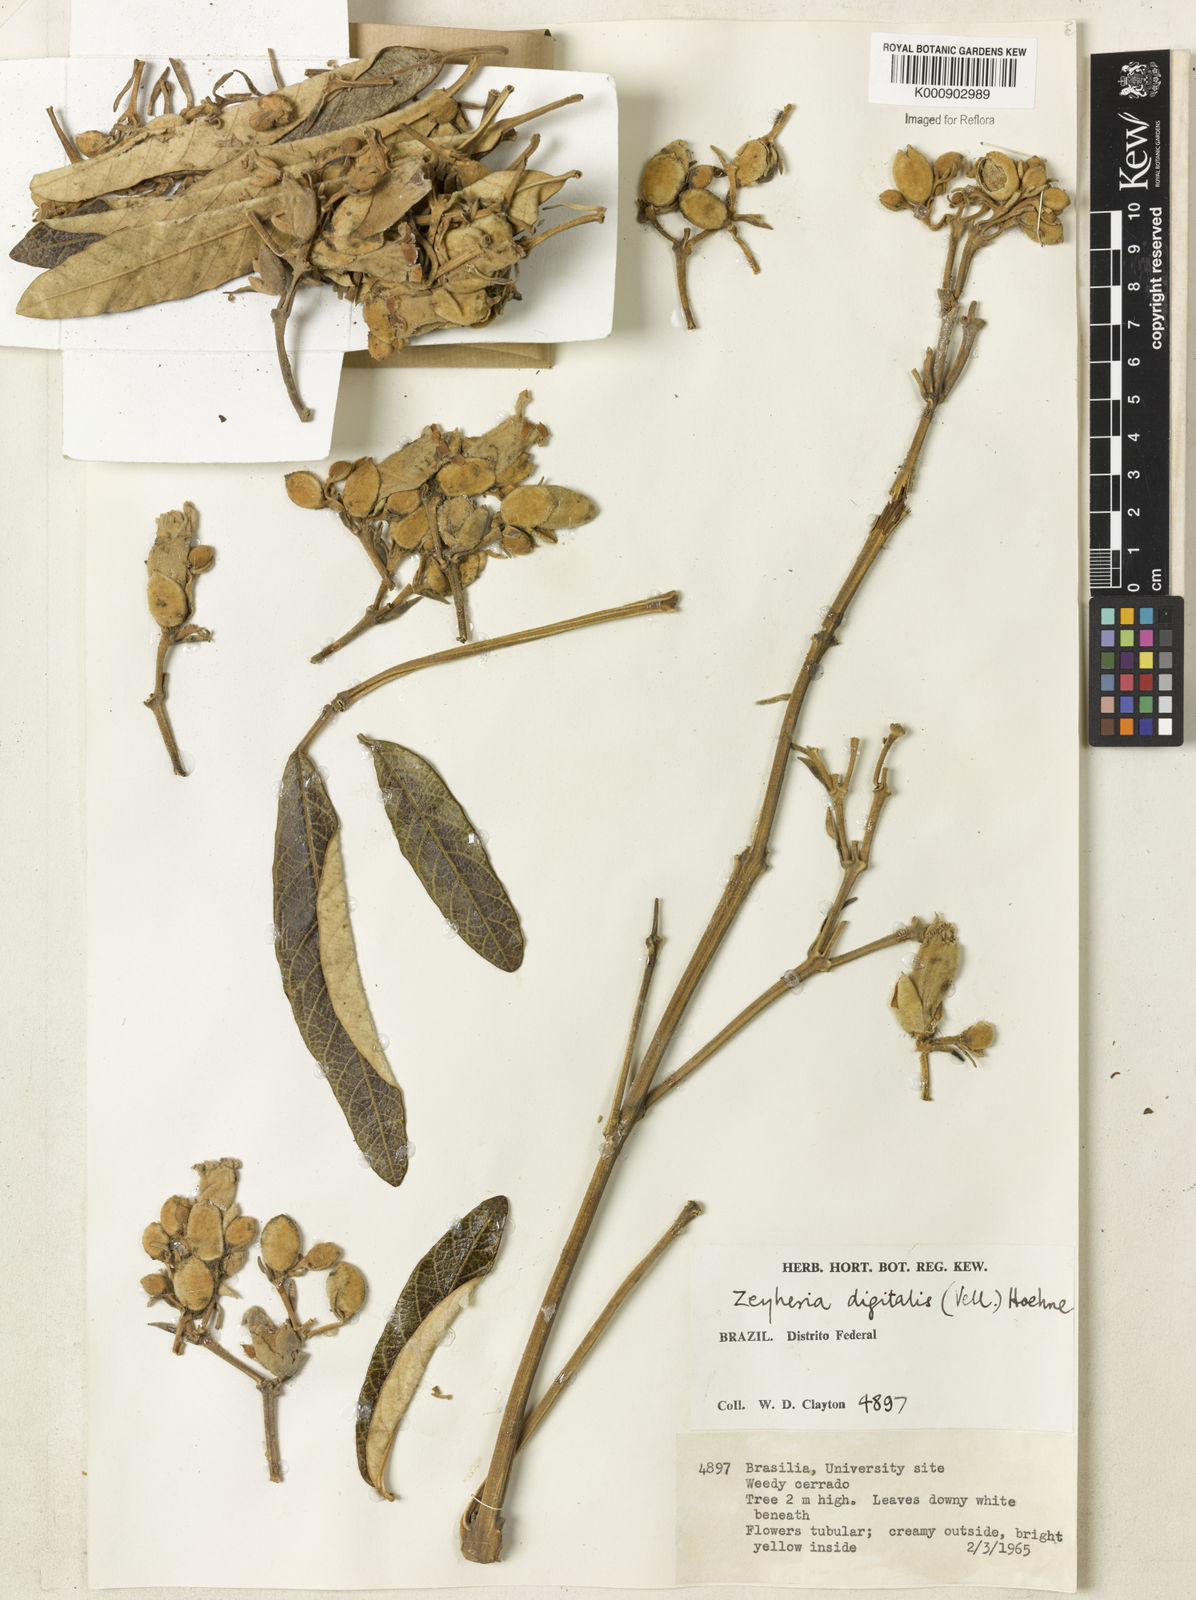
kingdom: Plantae
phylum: Tracheophyta
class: Magnoliopsida
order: Lamiales
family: Bignoniaceae
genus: Zeyheria
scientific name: Zeyheria
